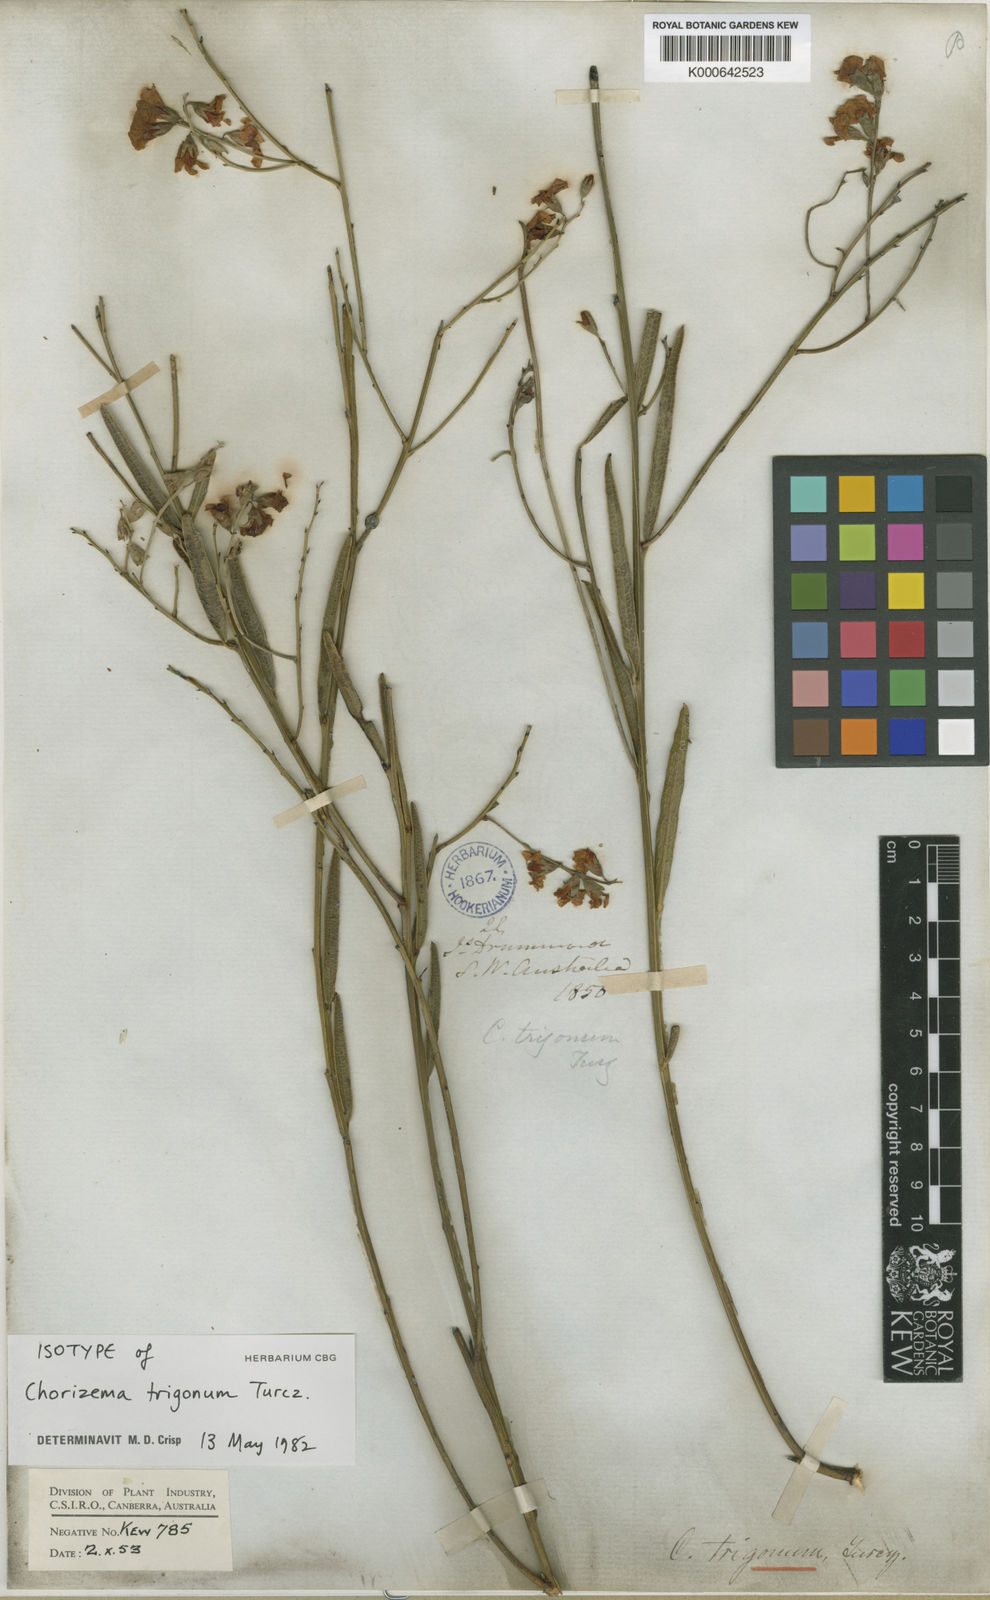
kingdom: Plantae
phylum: Tracheophyta
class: Magnoliopsida
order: Fabales
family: Fabaceae
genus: Chorizema
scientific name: Chorizema trigonum
